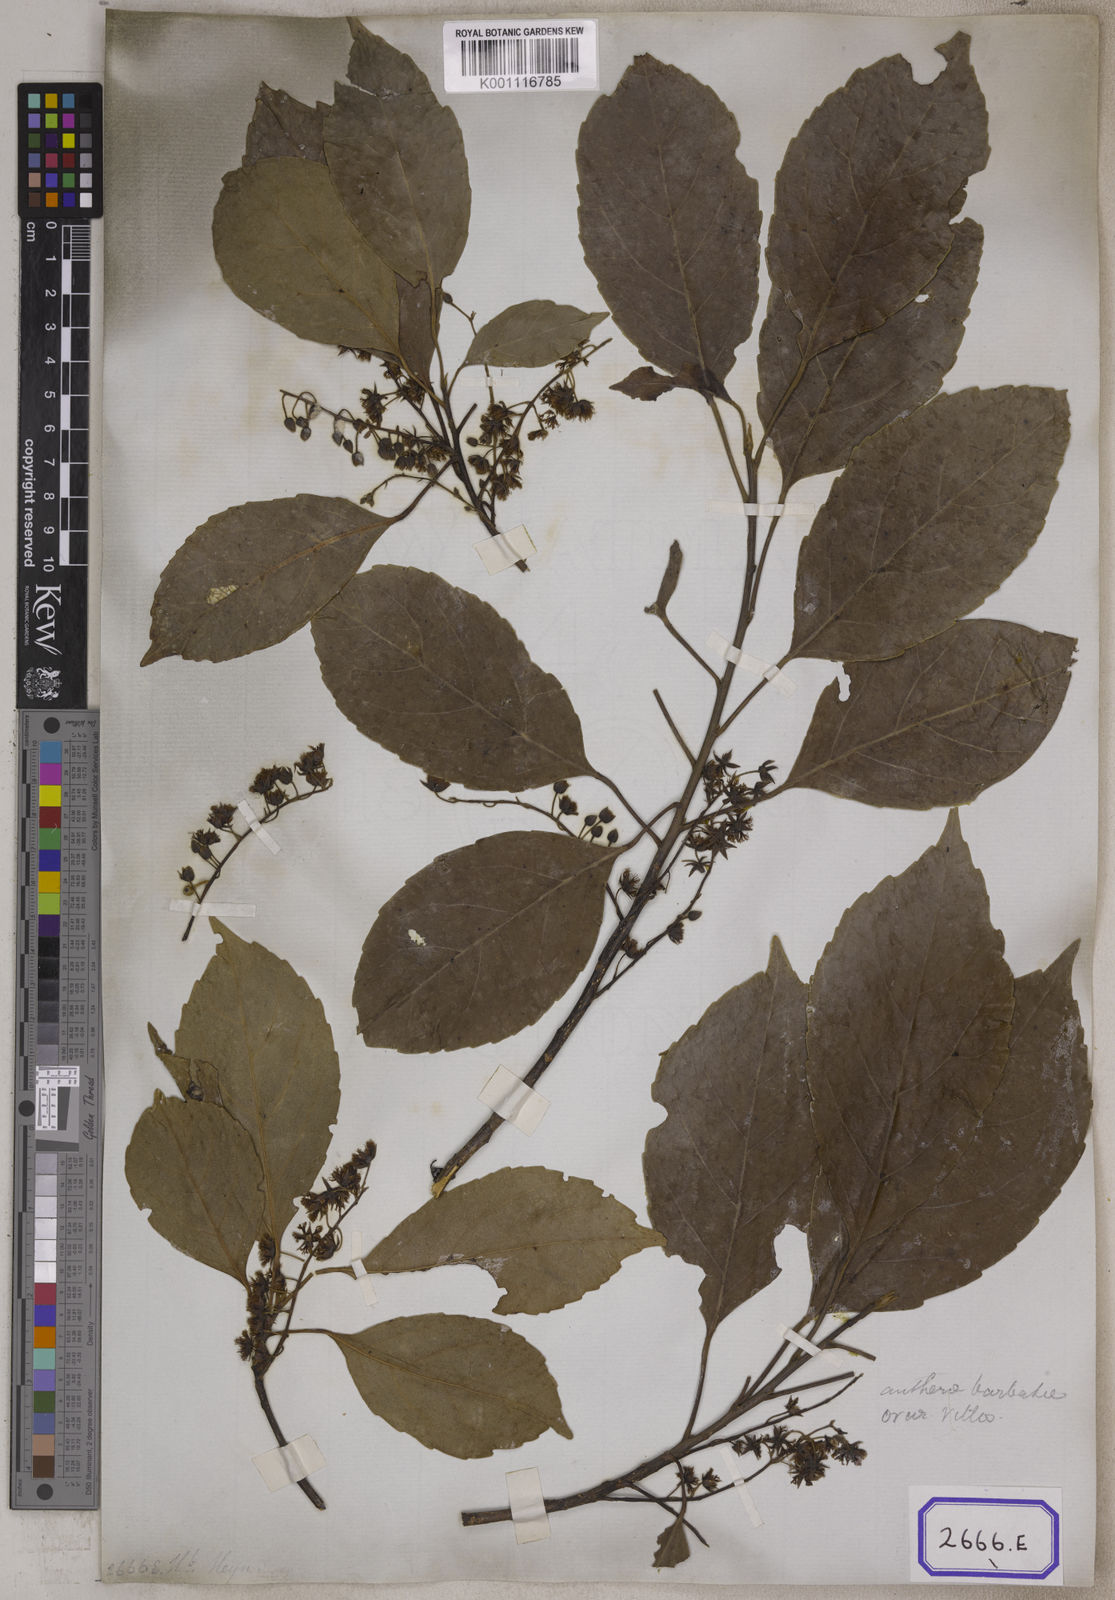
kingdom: Plantae
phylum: Tracheophyta
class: Magnoliopsida
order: Oxalidales
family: Elaeocarpaceae
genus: Elaeocarpus
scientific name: Elaeocarpus serratus
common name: Ceylon-olive
